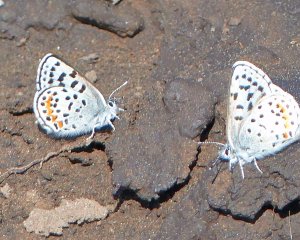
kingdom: Animalia
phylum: Arthropoda
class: Insecta
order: Lepidoptera
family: Lycaenidae
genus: Euphilotes
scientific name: Euphilotes battoides
